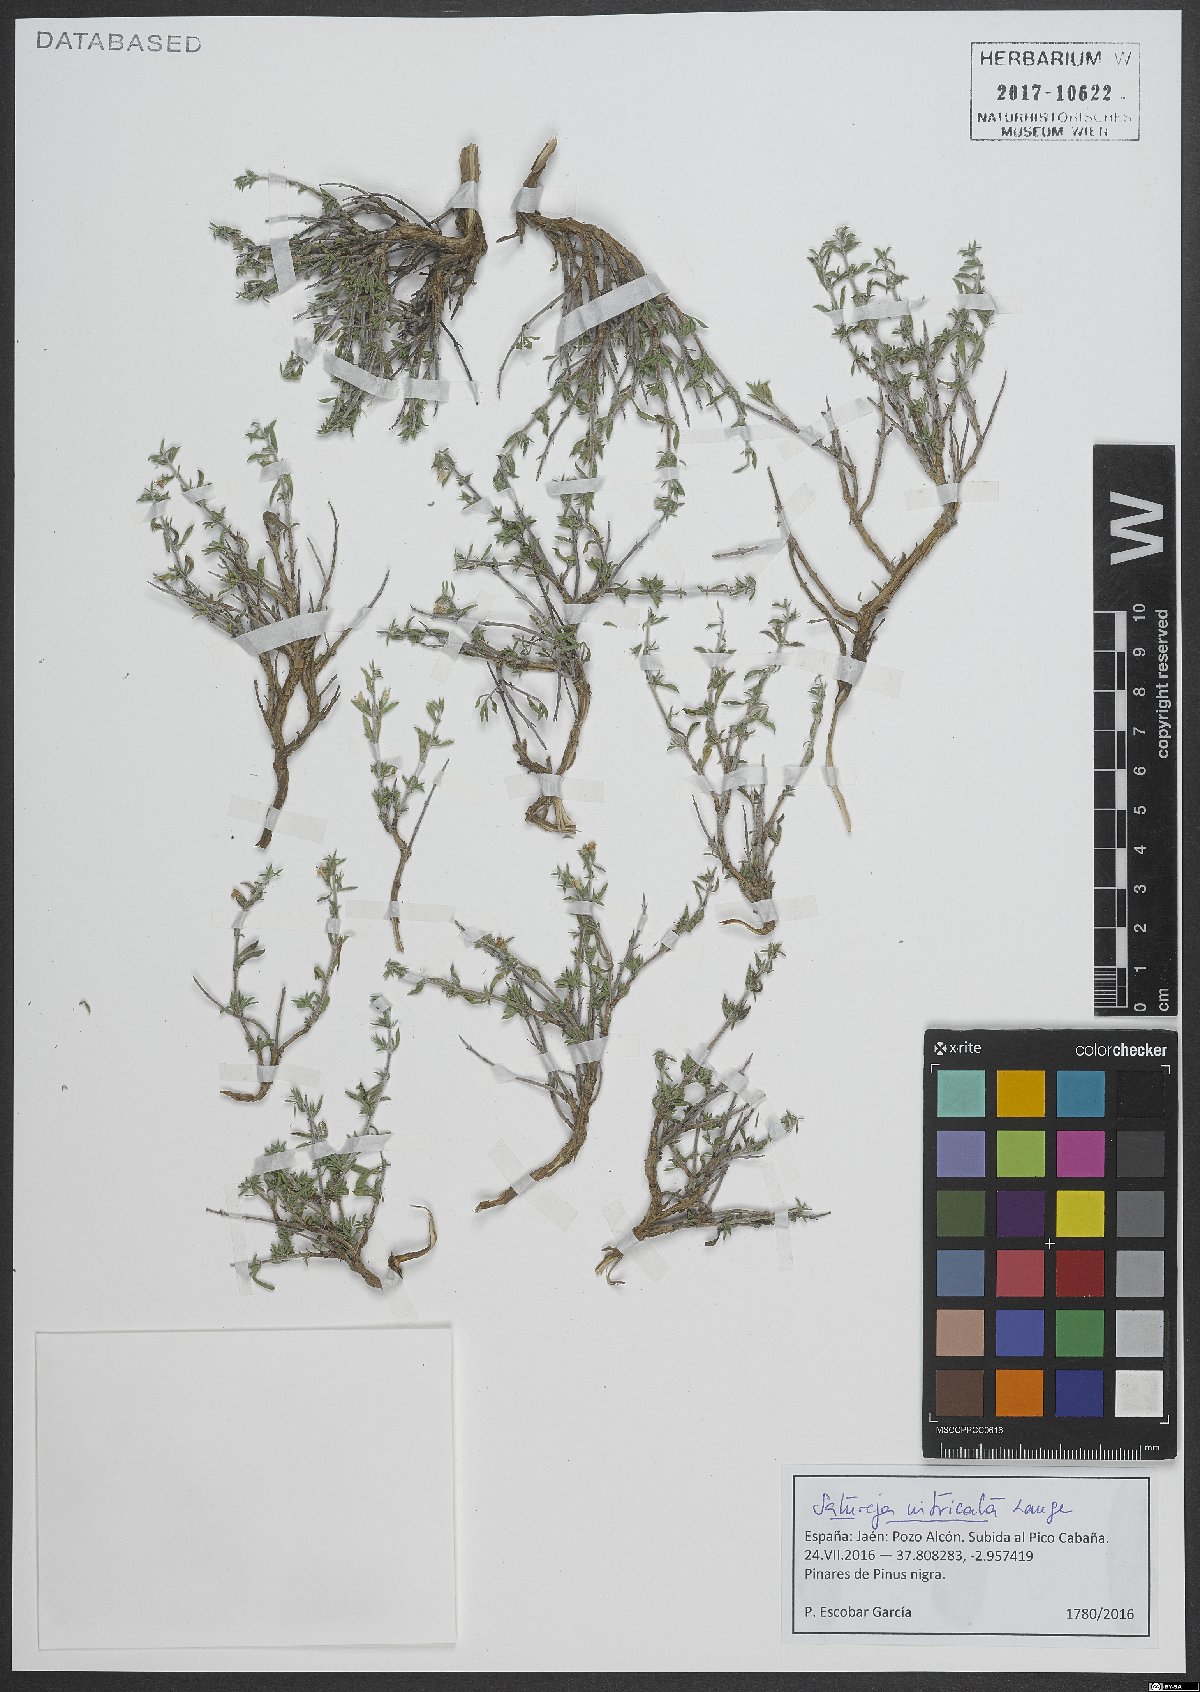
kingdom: Plantae
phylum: Tracheophyta
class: Magnoliopsida
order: Lamiales
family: Lamiaceae
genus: Satureja
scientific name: Satureja intricata
